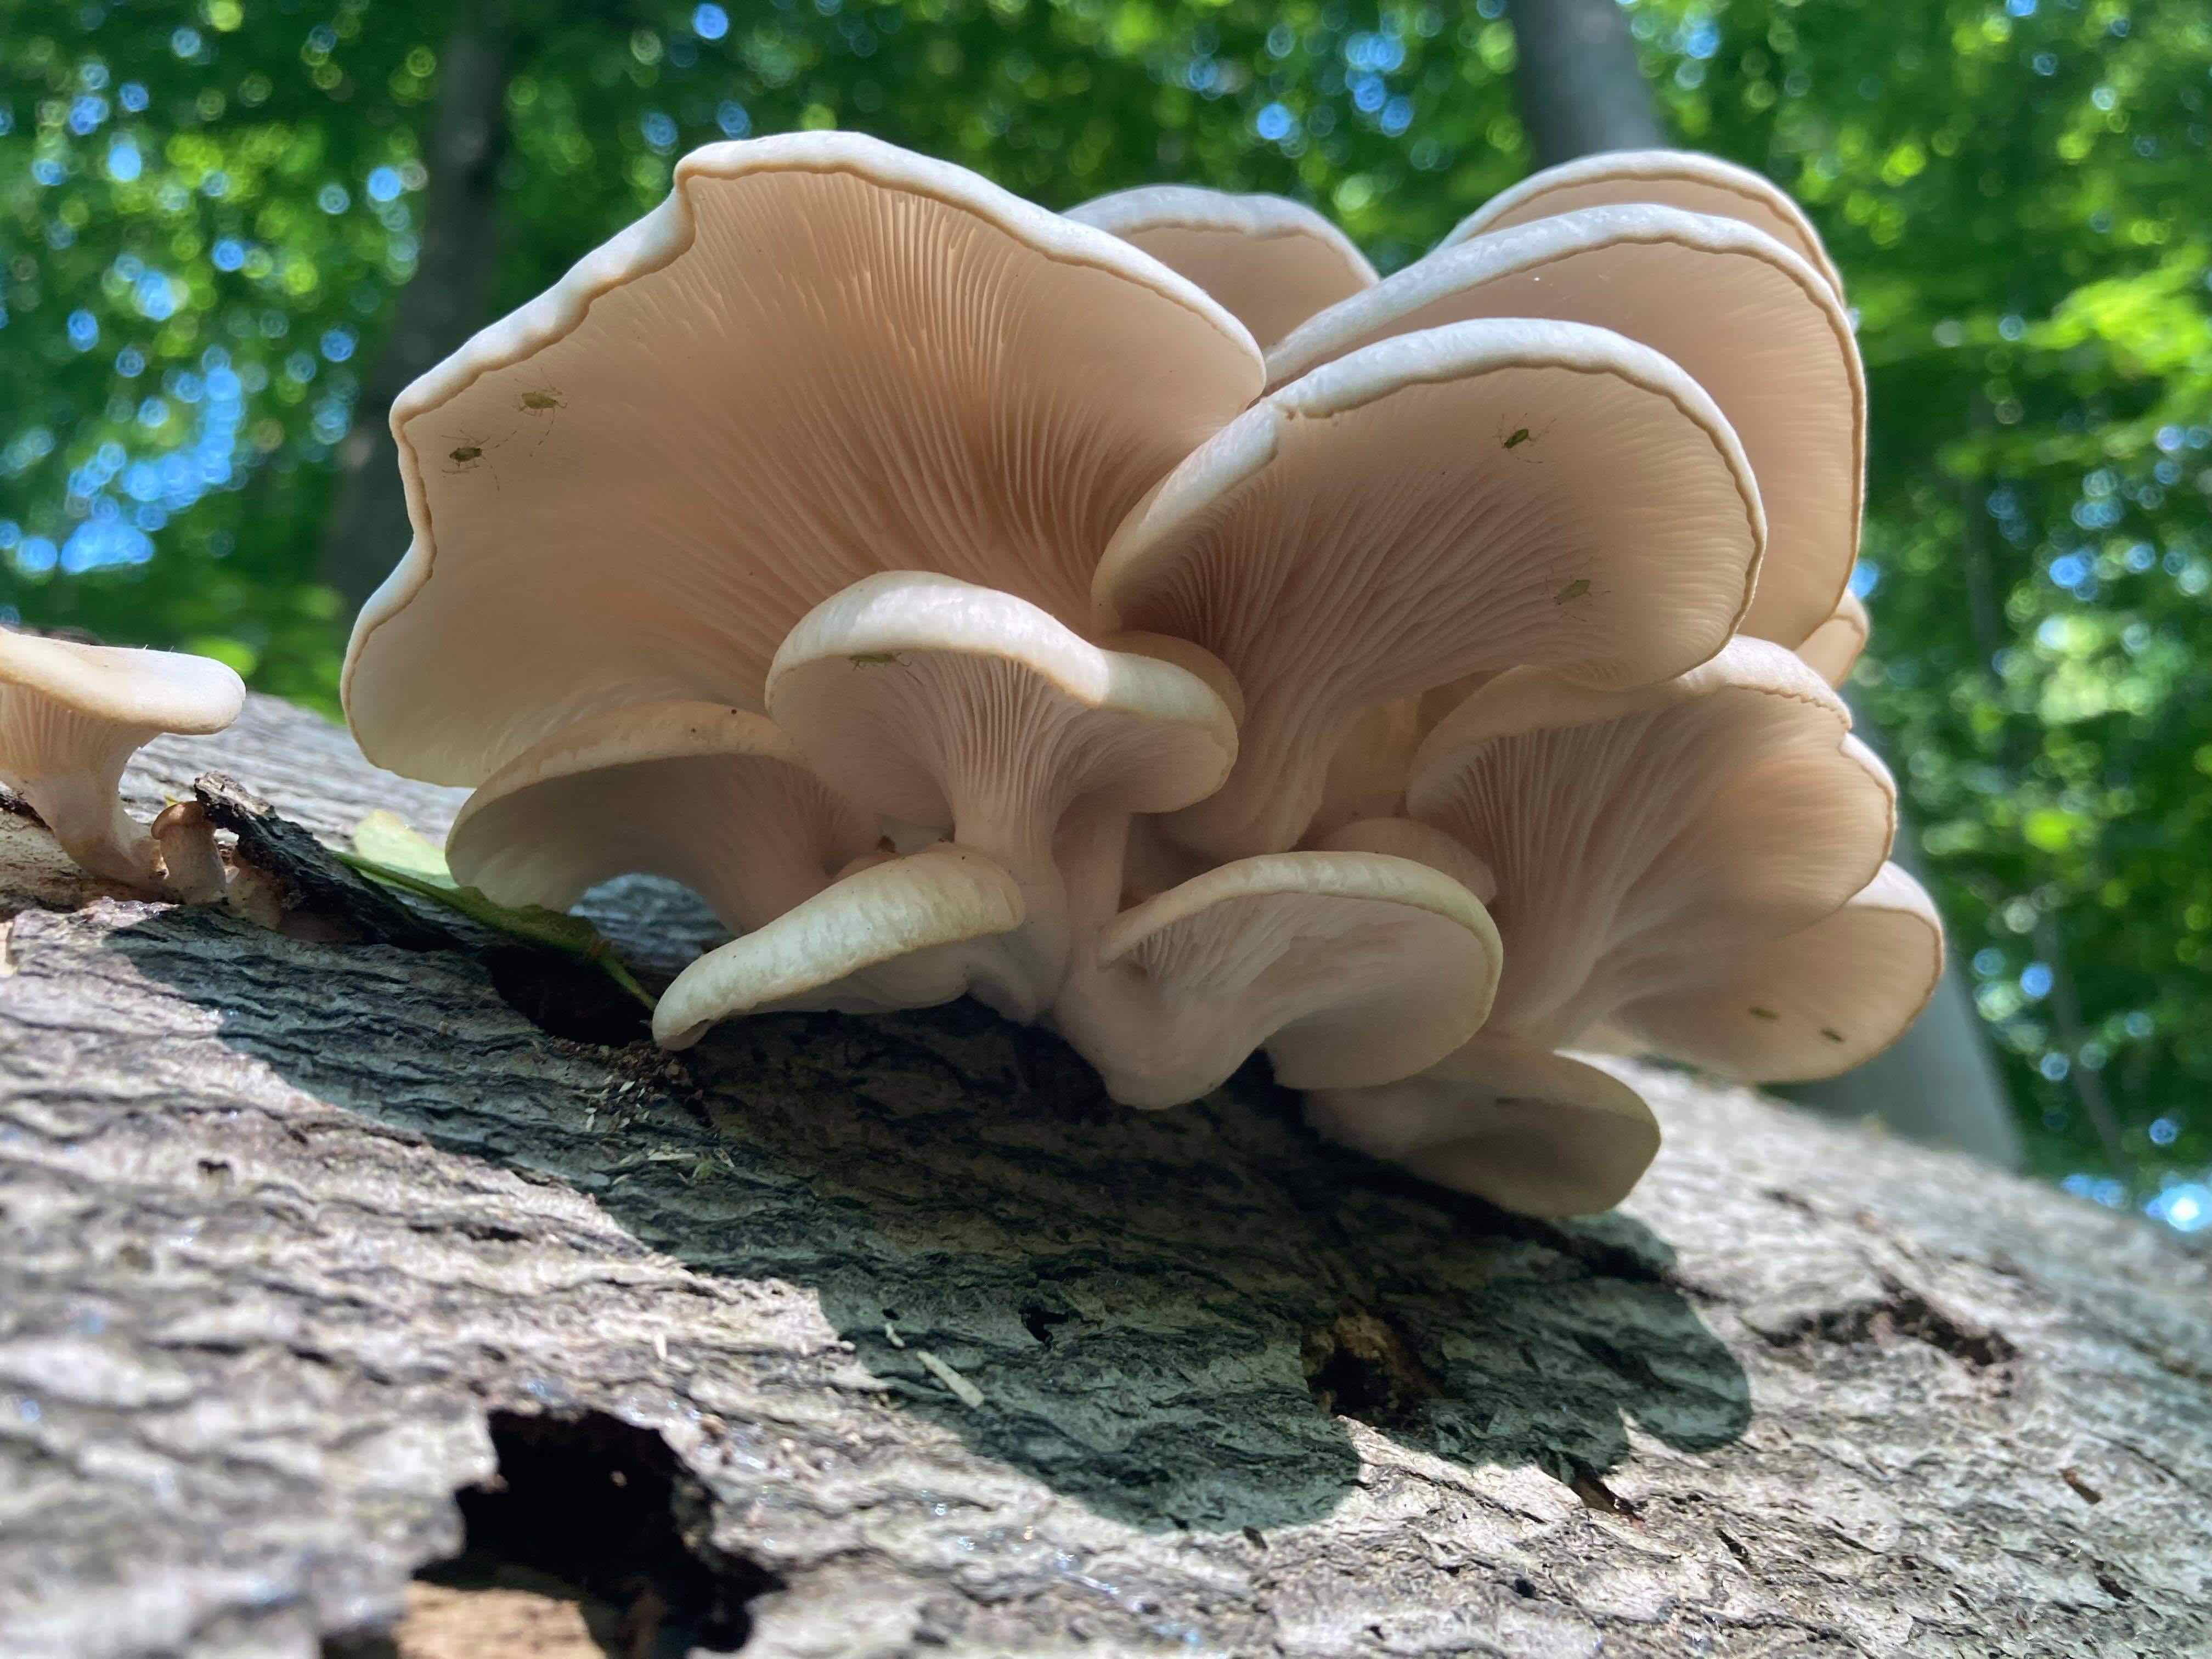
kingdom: Fungi
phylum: Basidiomycota
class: Agaricomycetes
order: Agaricales
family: Pleurotaceae
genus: Pleurotus
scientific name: Pleurotus pulmonarius
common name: sommer-østershat
